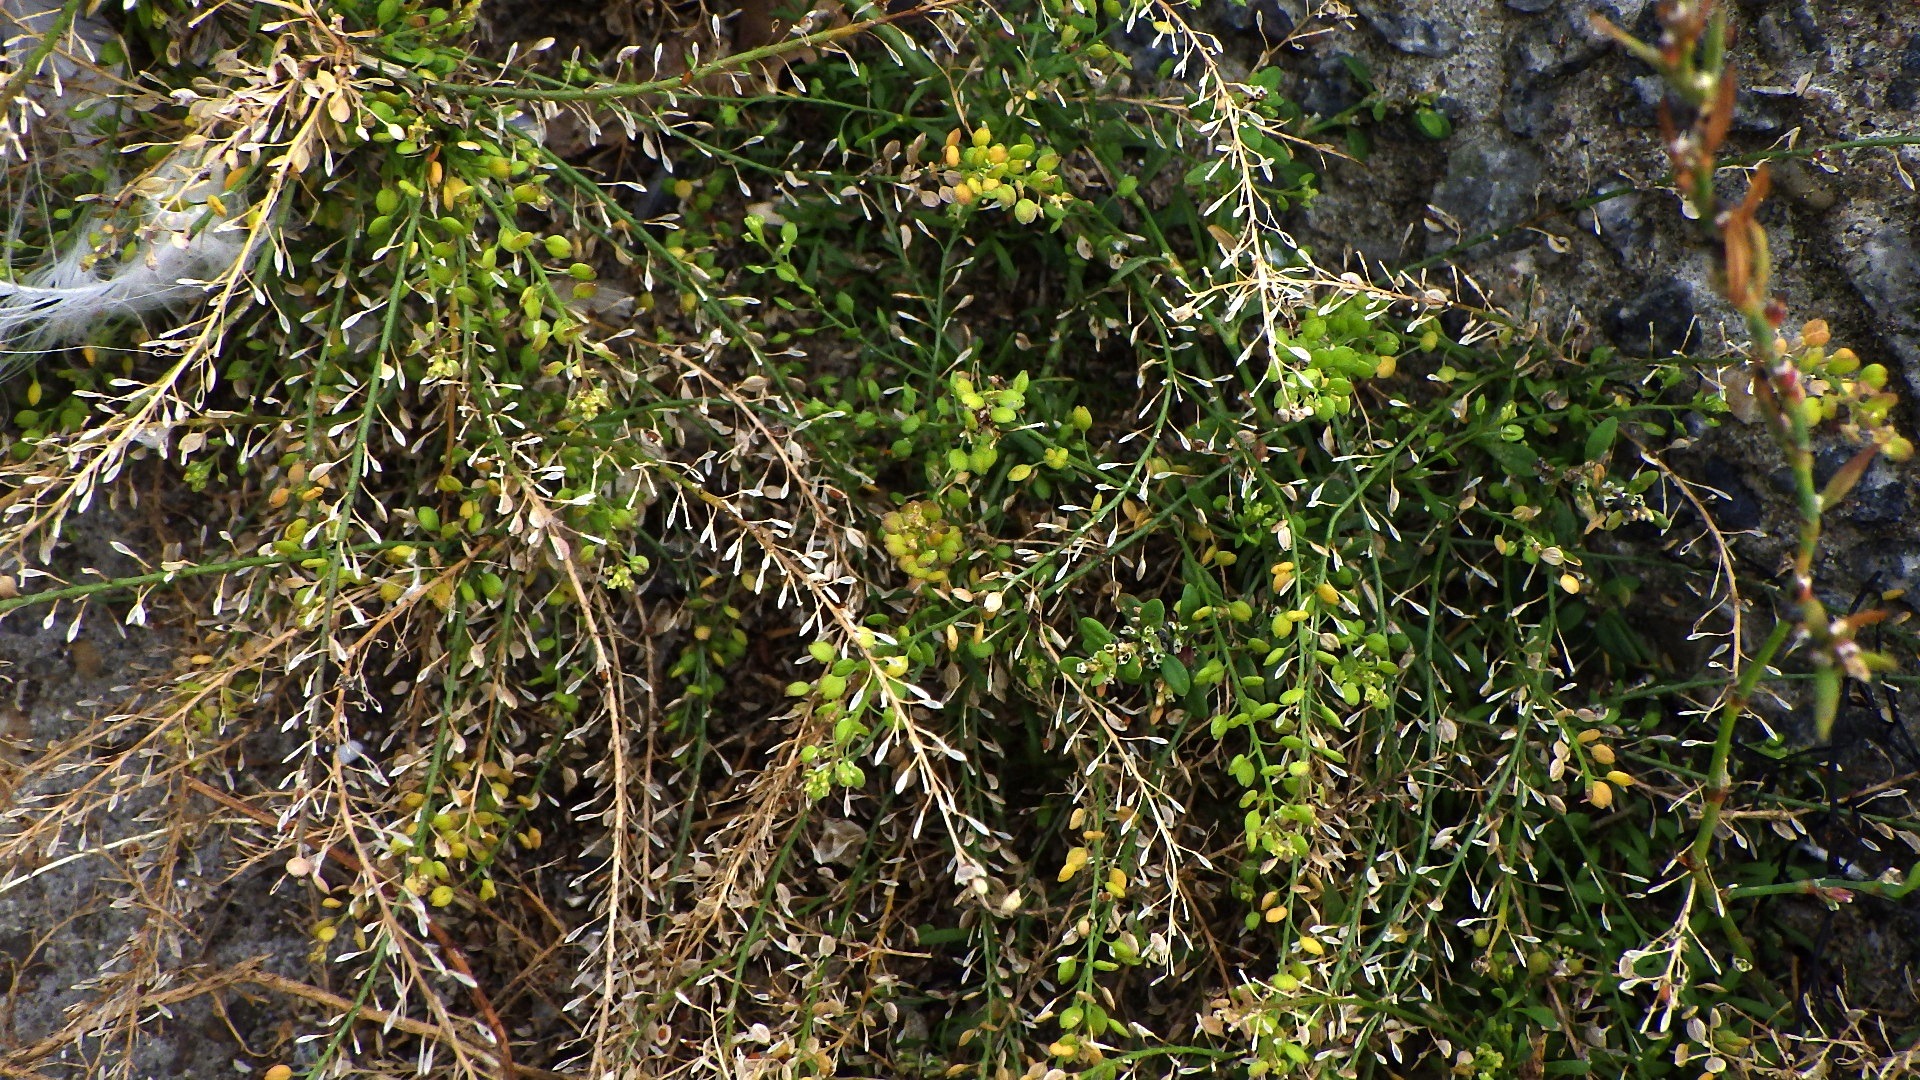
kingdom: Plantae
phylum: Tracheophyta
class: Magnoliopsida
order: Brassicales
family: Brassicaceae
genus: Lepidium
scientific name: Lepidium ruderale
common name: Stinkende karse
